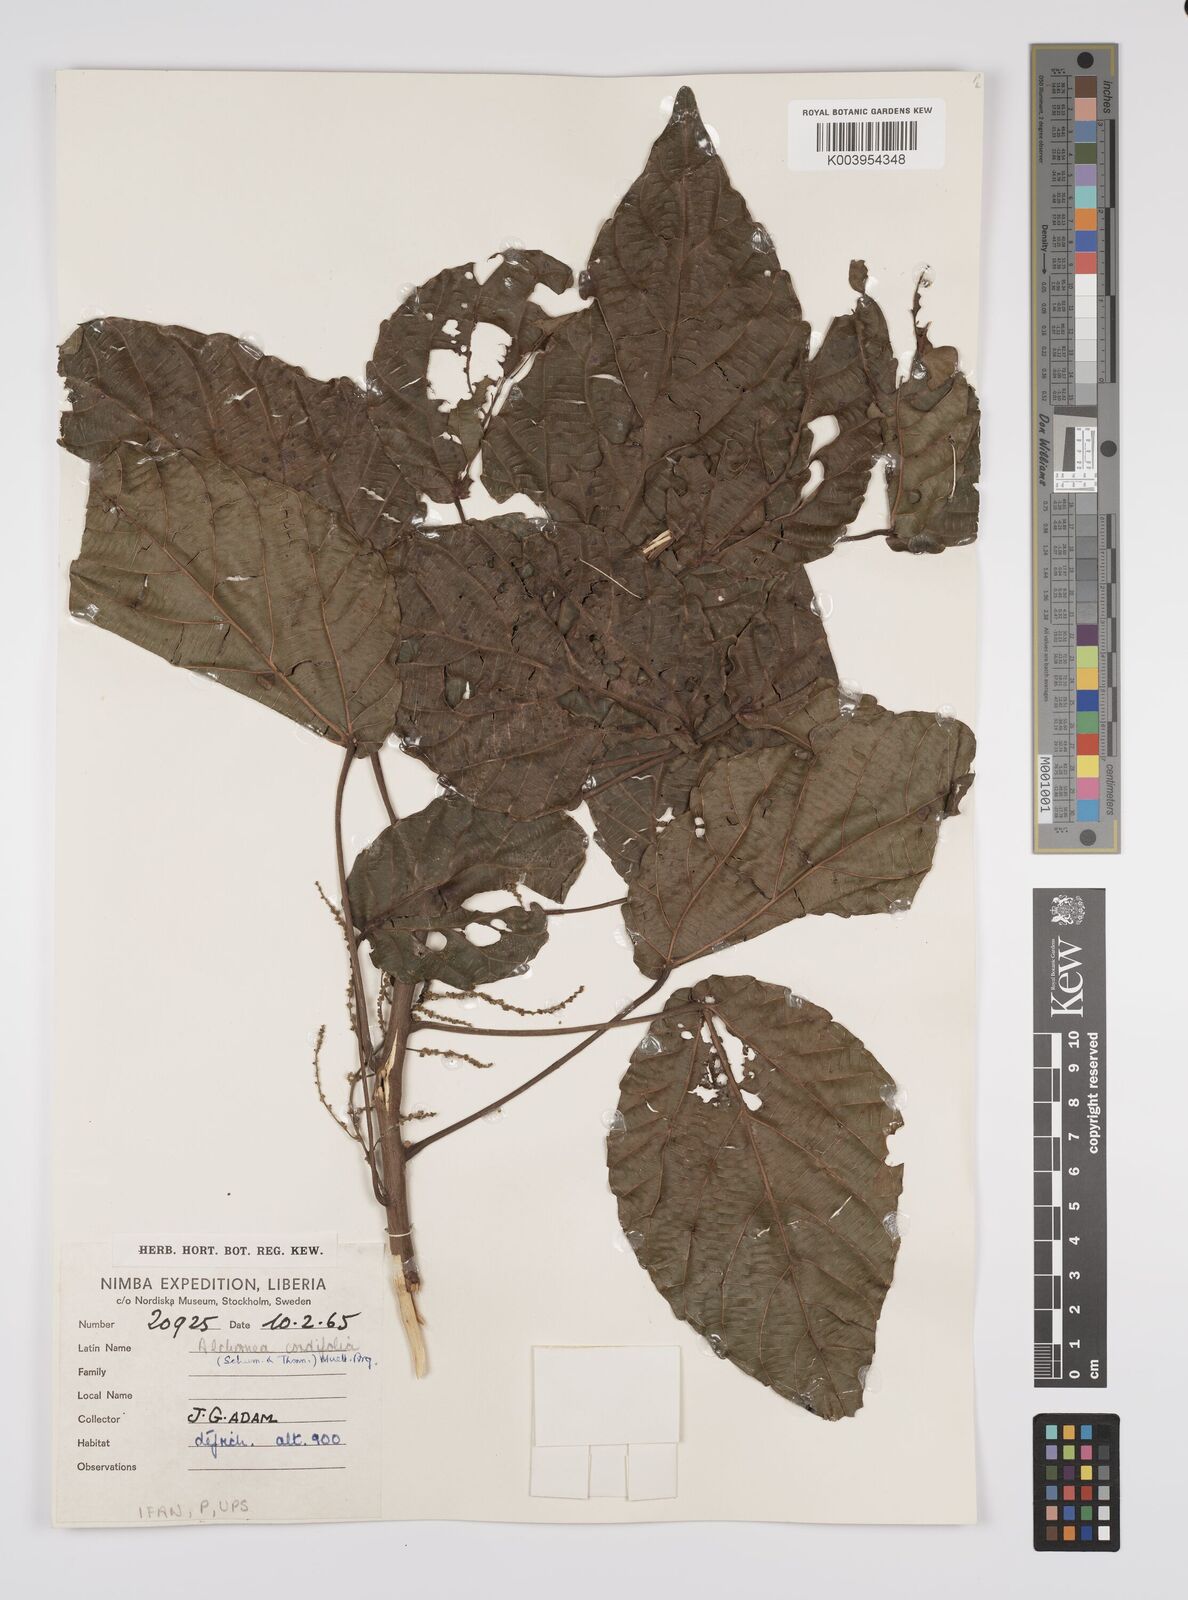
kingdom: Plantae
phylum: Tracheophyta
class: Magnoliopsida
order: Malpighiales
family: Euphorbiaceae
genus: Alchornea
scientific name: Alchornea cordifolia
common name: Christmasbush
